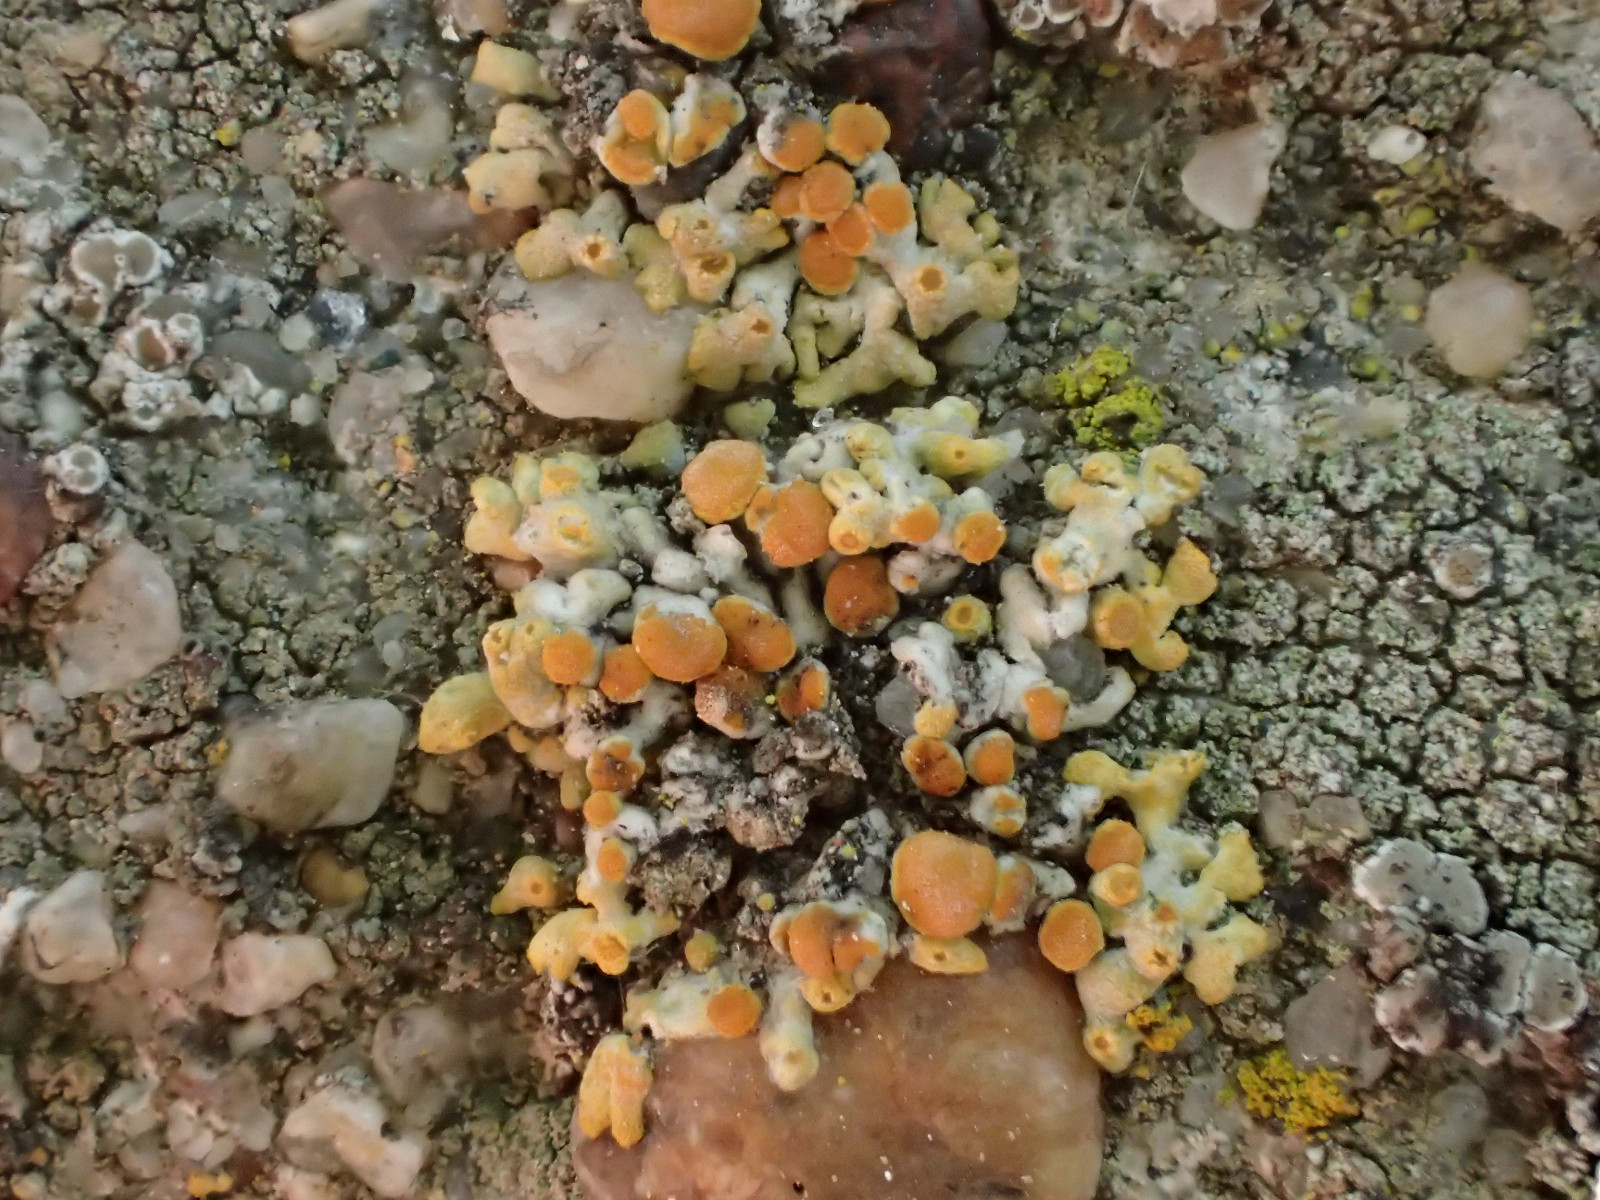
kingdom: Fungi
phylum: Ascomycota
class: Lecanoromycetes
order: Teloschistales
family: Teloschistaceae
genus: Calogaya
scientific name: Calogaya pusilla
